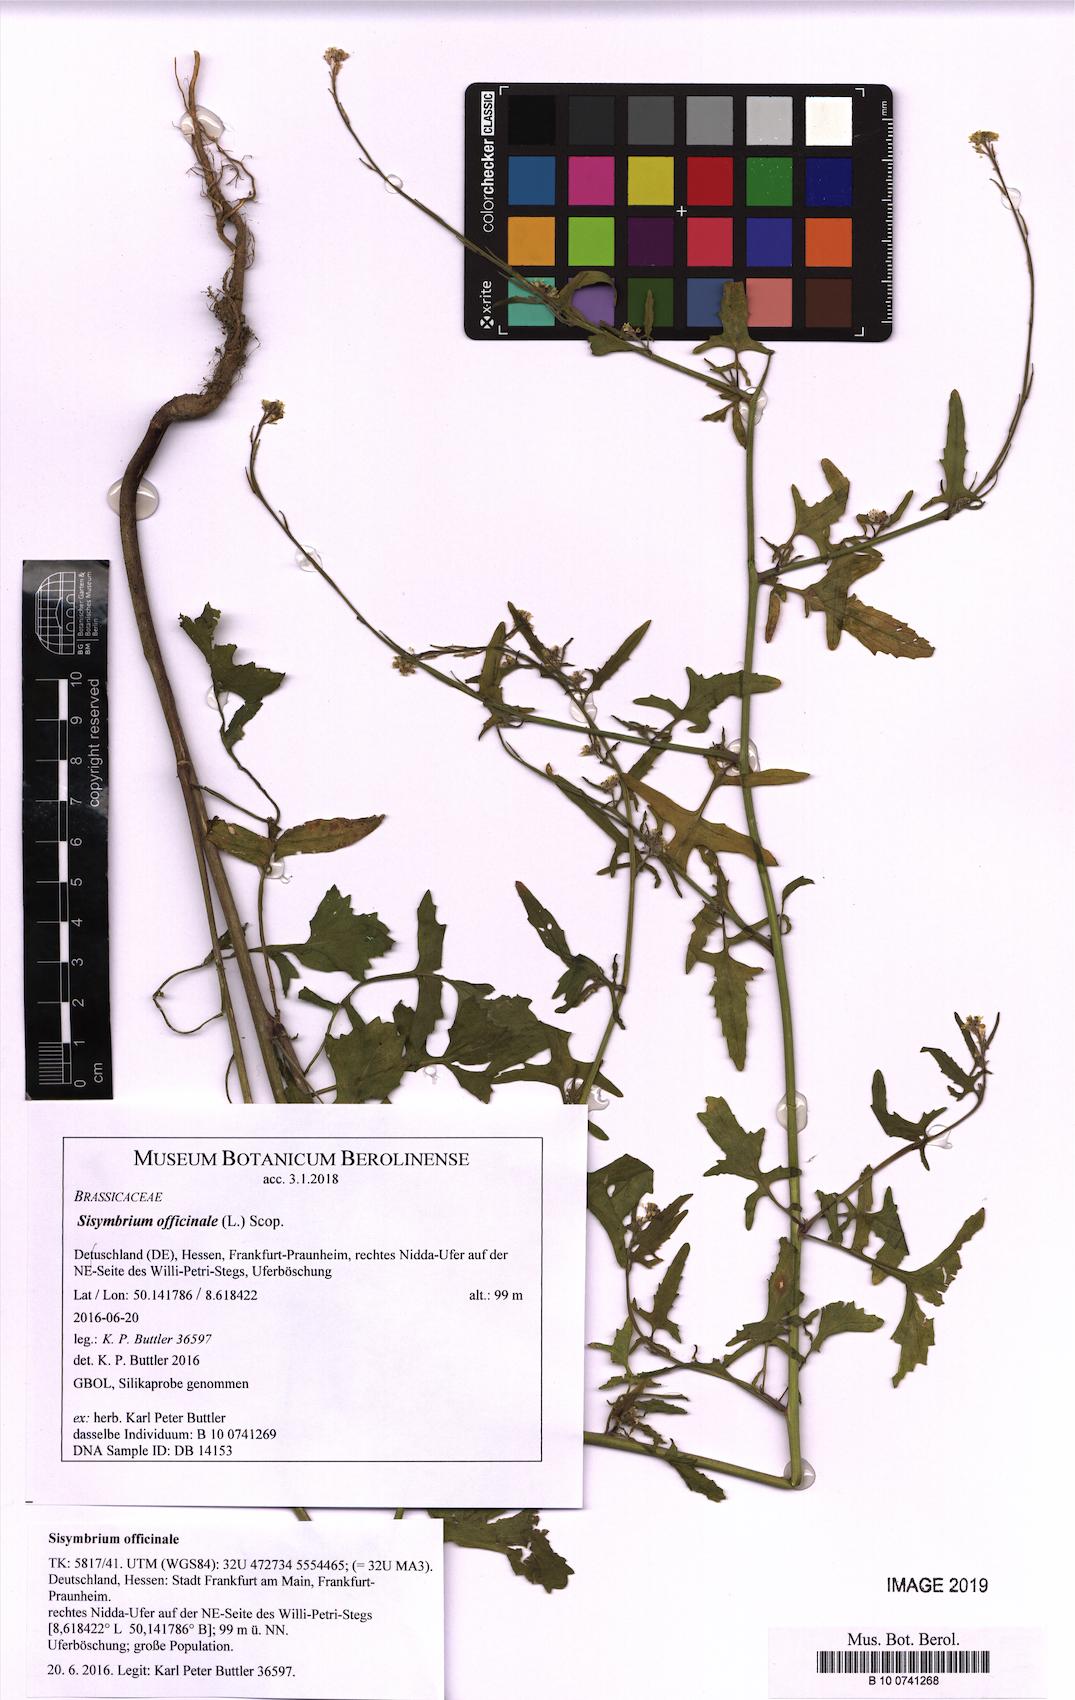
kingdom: Plantae
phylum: Tracheophyta
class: Magnoliopsida
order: Brassicales
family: Brassicaceae
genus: Sisymbrium
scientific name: Sisymbrium officinale
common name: Hedge mustard
